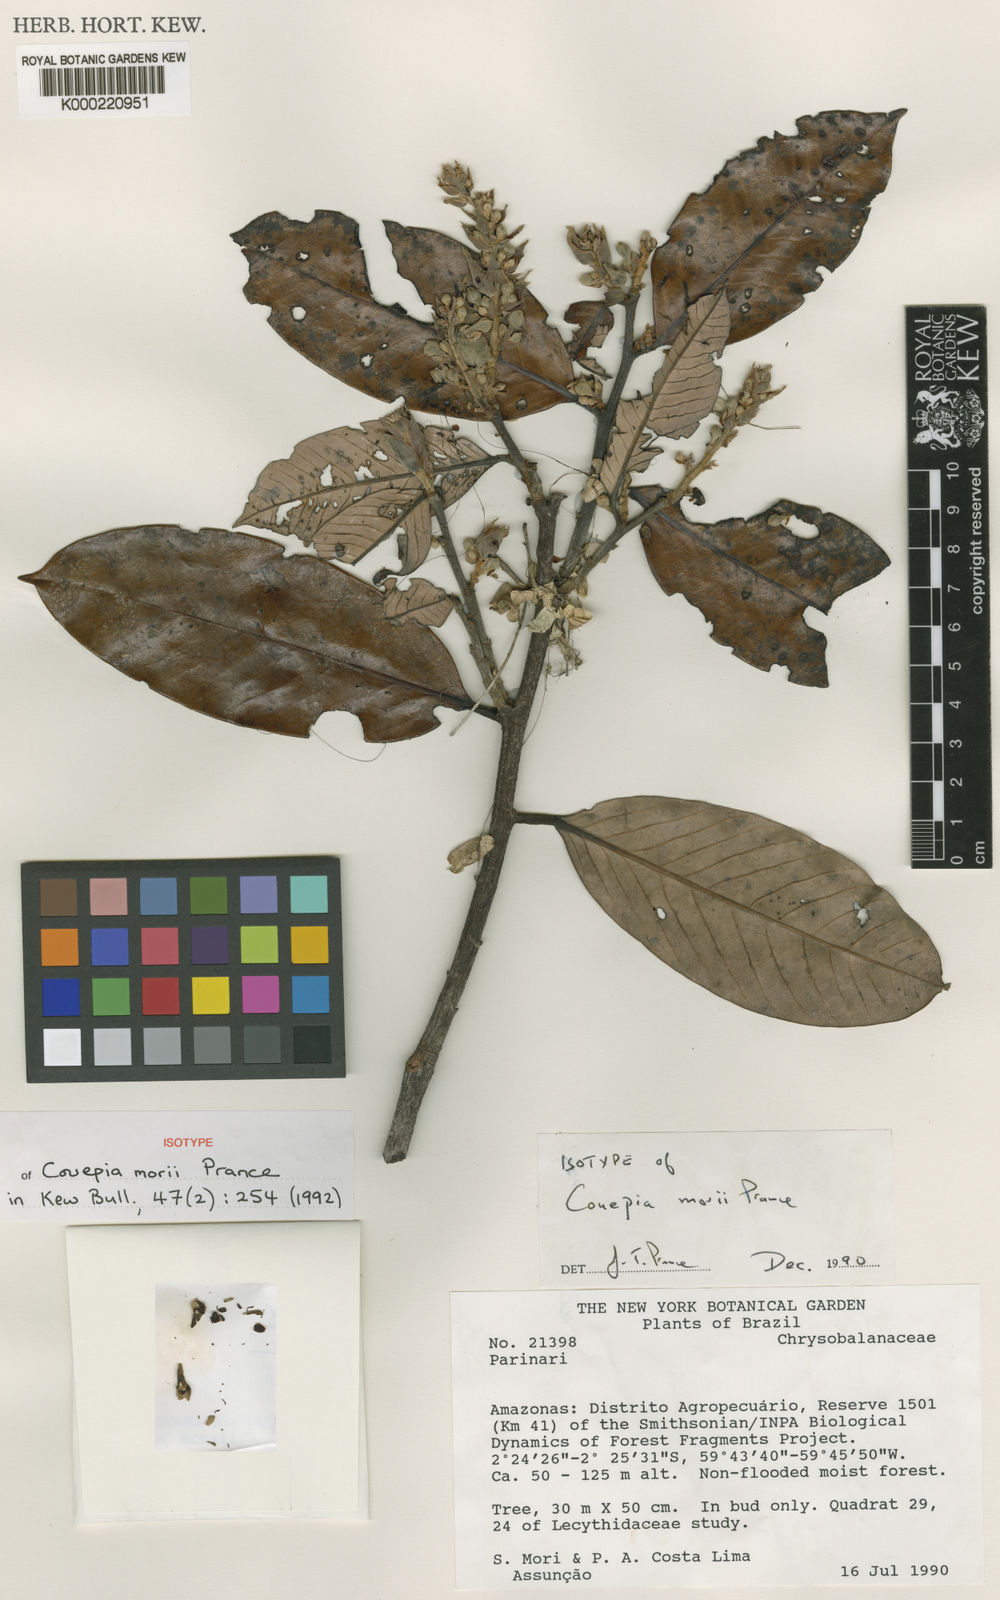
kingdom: Plantae
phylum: Tracheophyta
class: Magnoliopsida
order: Malpighiales
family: Chrysobalanaceae
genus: Couepia
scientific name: Couepia morii
